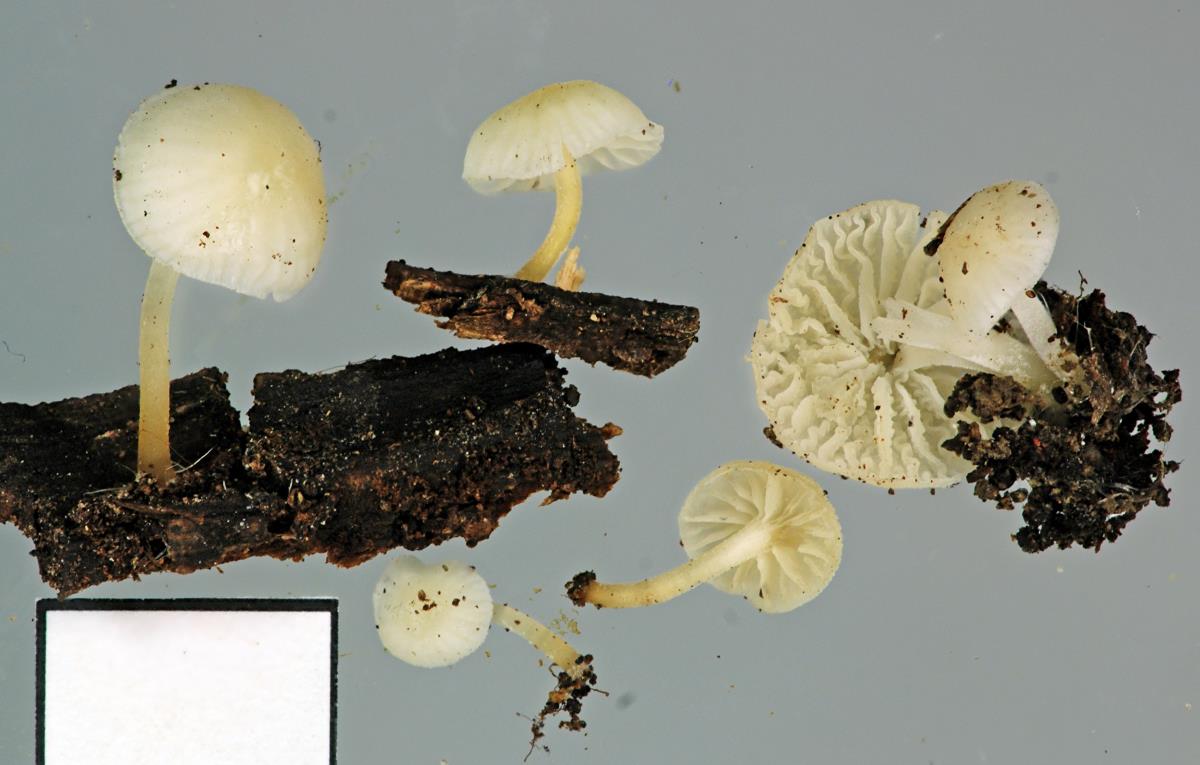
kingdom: Fungi
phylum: Basidiomycota
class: Agaricomycetes
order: Agaricales
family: Porotheleaceae
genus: Phloeomana
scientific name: Phloeomana minutula
